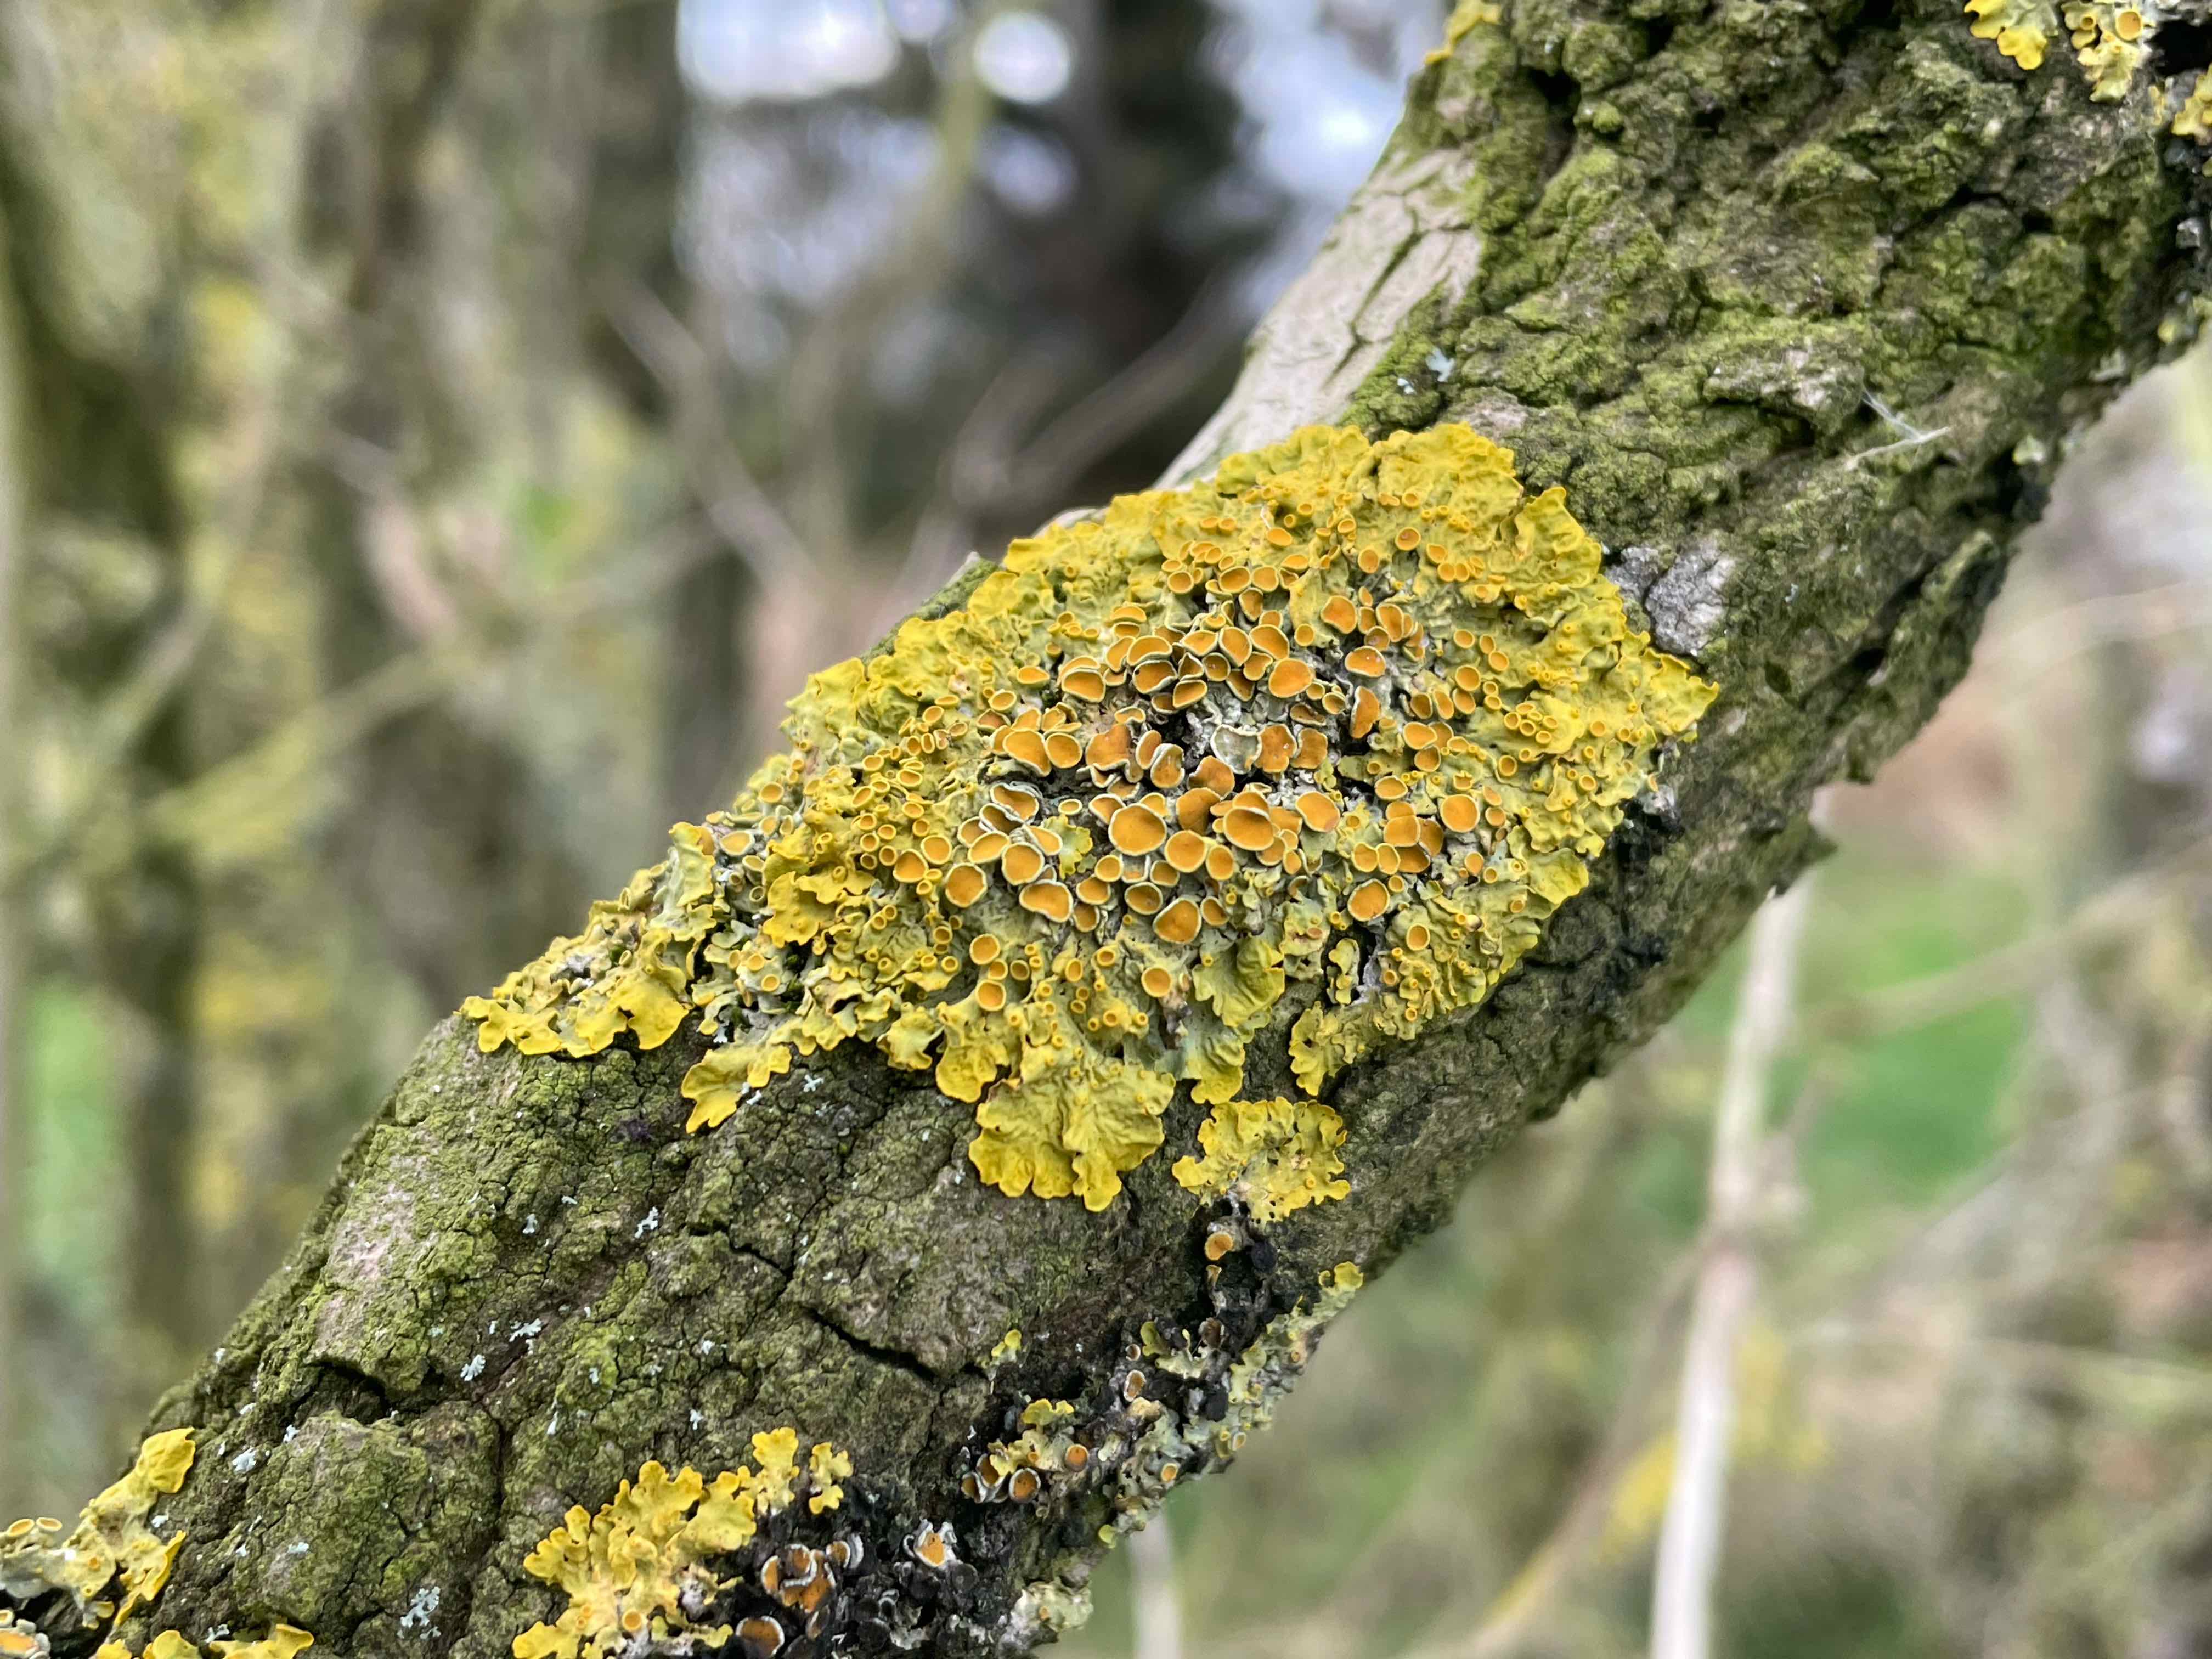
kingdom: Fungi
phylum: Ascomycota
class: Lecanoromycetes
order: Teloschistales
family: Teloschistaceae
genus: Xanthoria
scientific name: Xanthoria parietina
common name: almindelig væggelav
